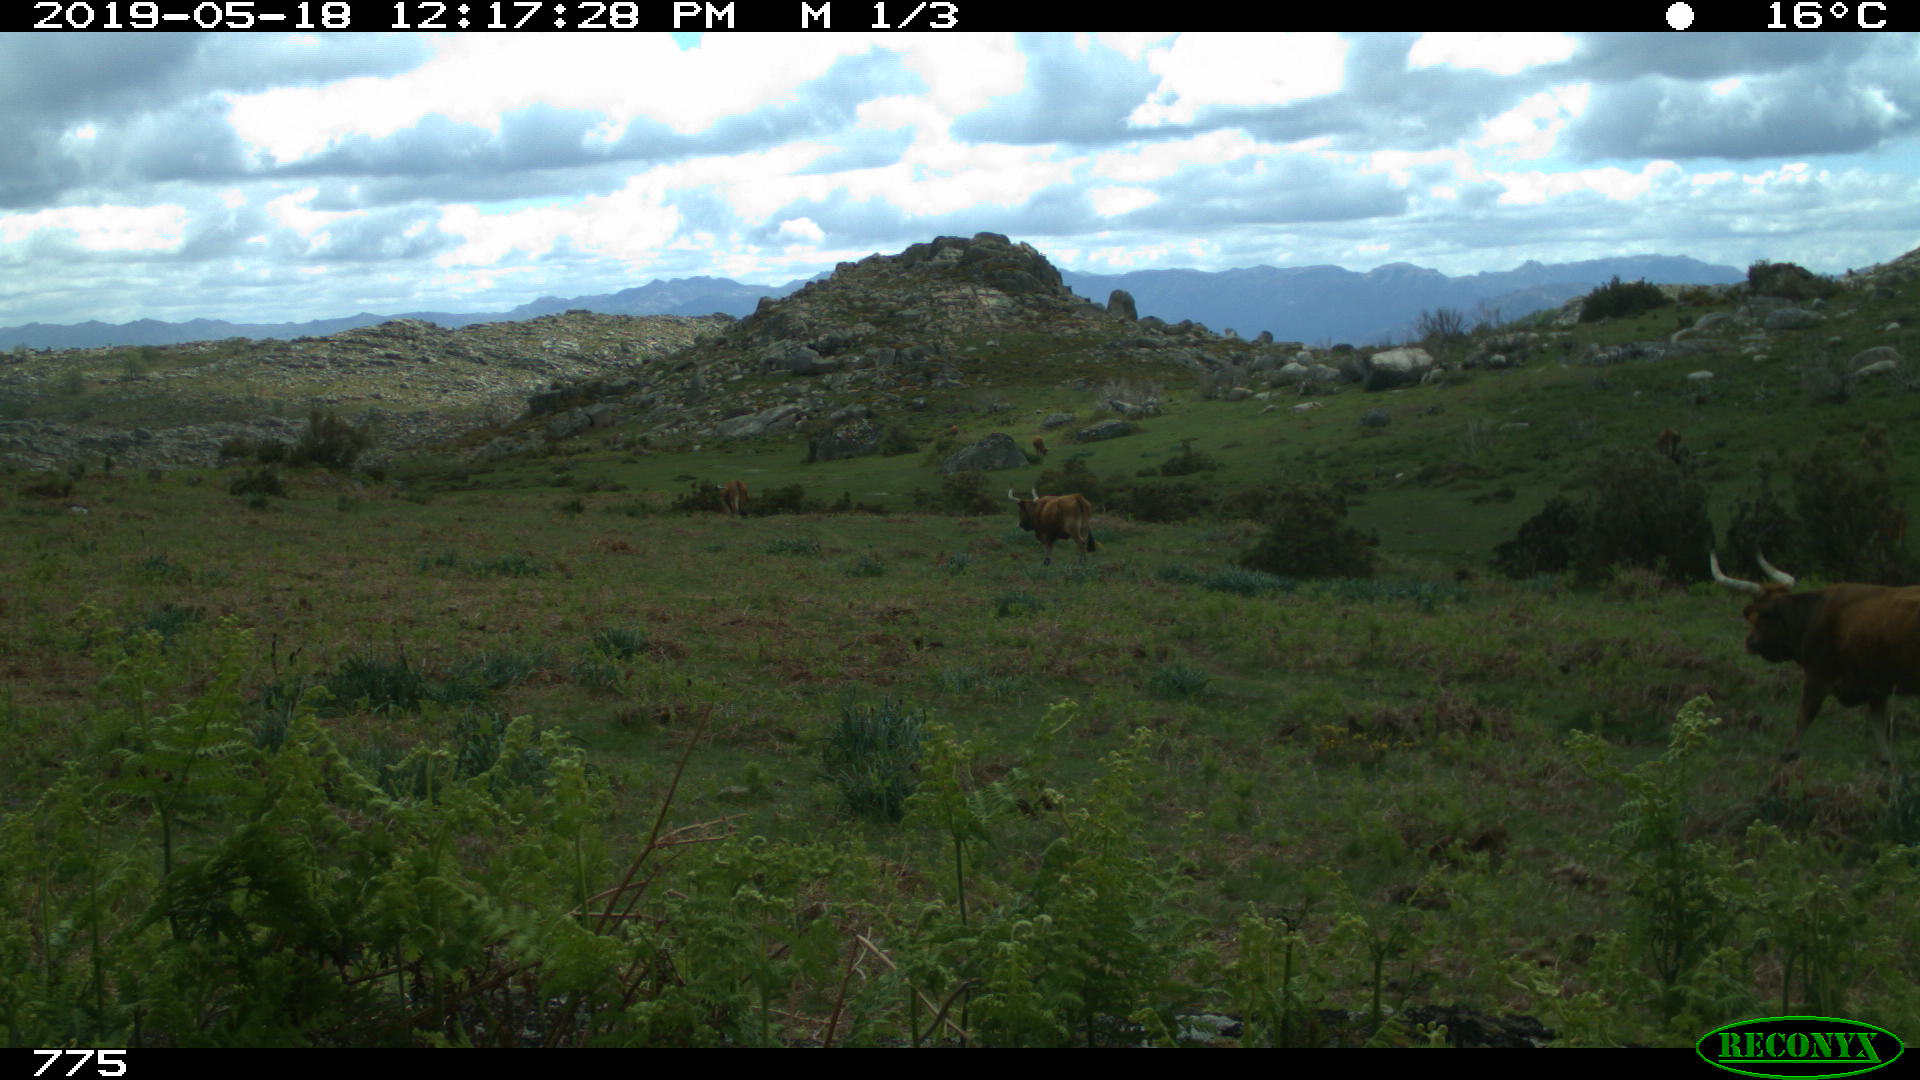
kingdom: Animalia
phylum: Chordata
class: Mammalia
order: Artiodactyla
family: Bovidae
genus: Bos
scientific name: Bos taurus
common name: Domesticated cattle
